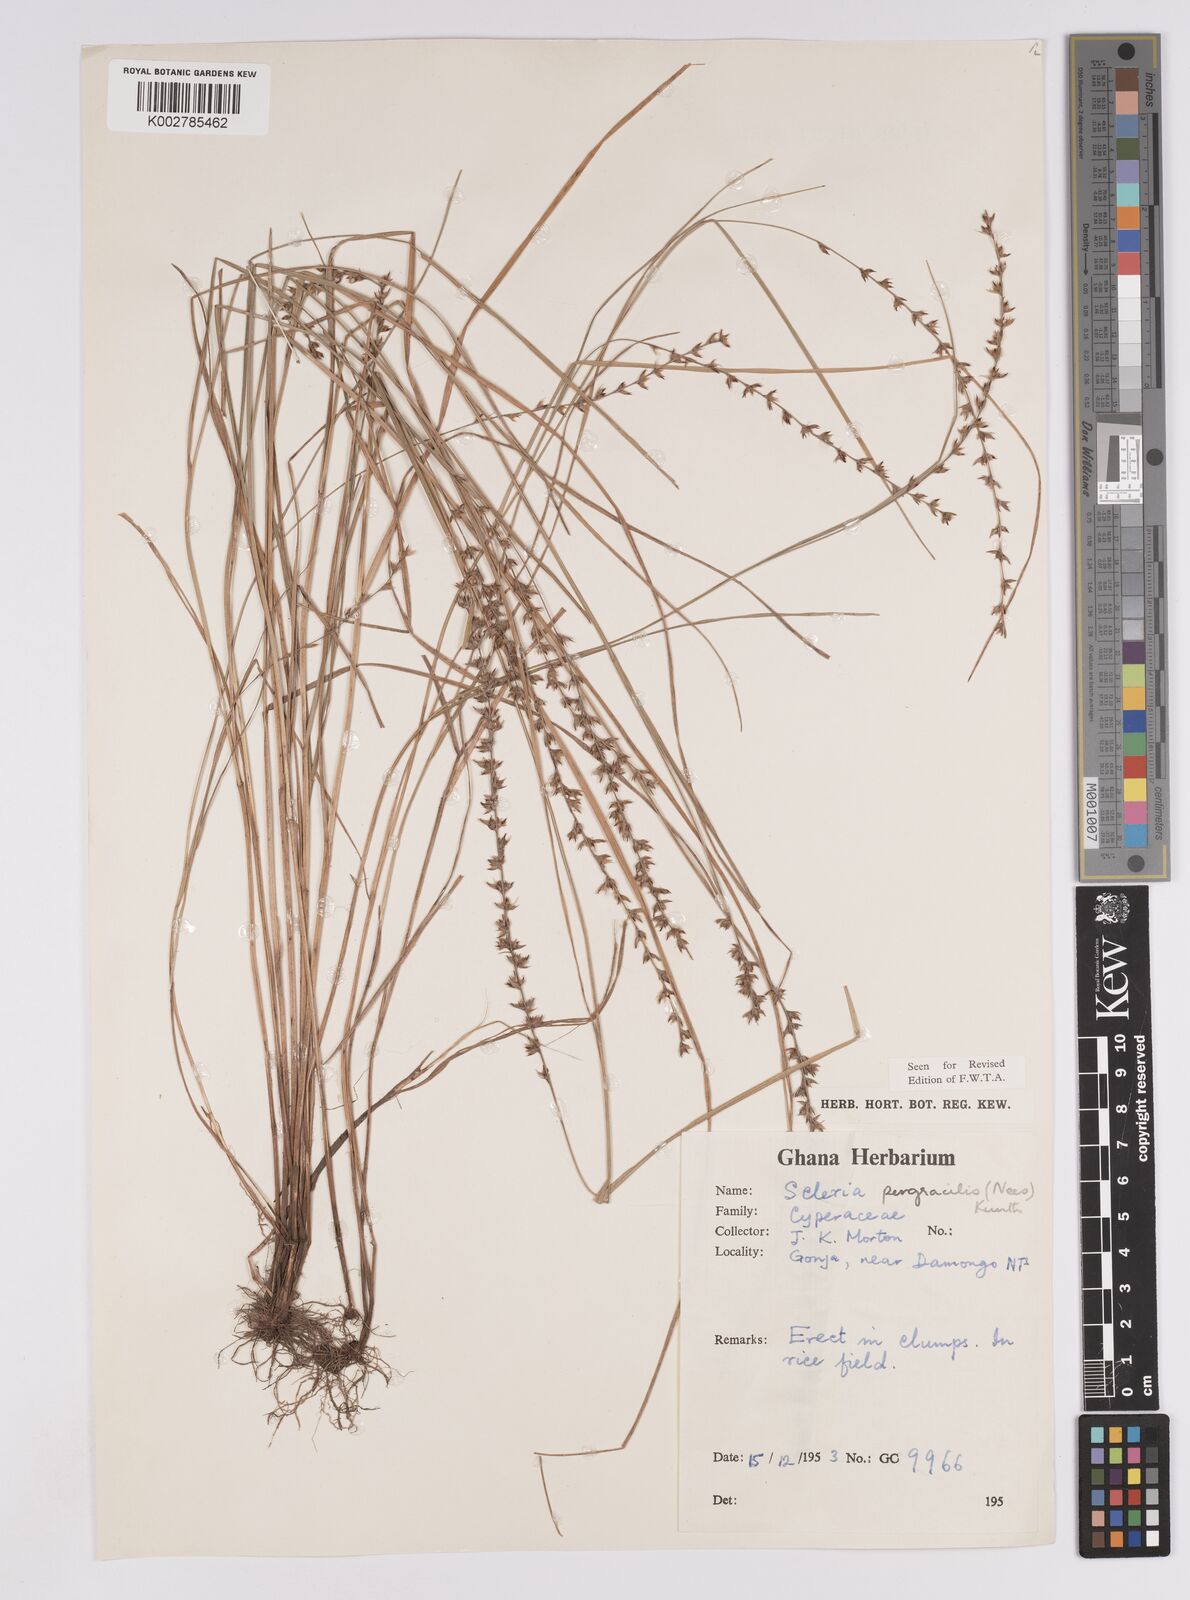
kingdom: Plantae
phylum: Tracheophyta
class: Liliopsida
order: Poales
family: Cyperaceae
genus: Scleria
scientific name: Scleria pergracilis
